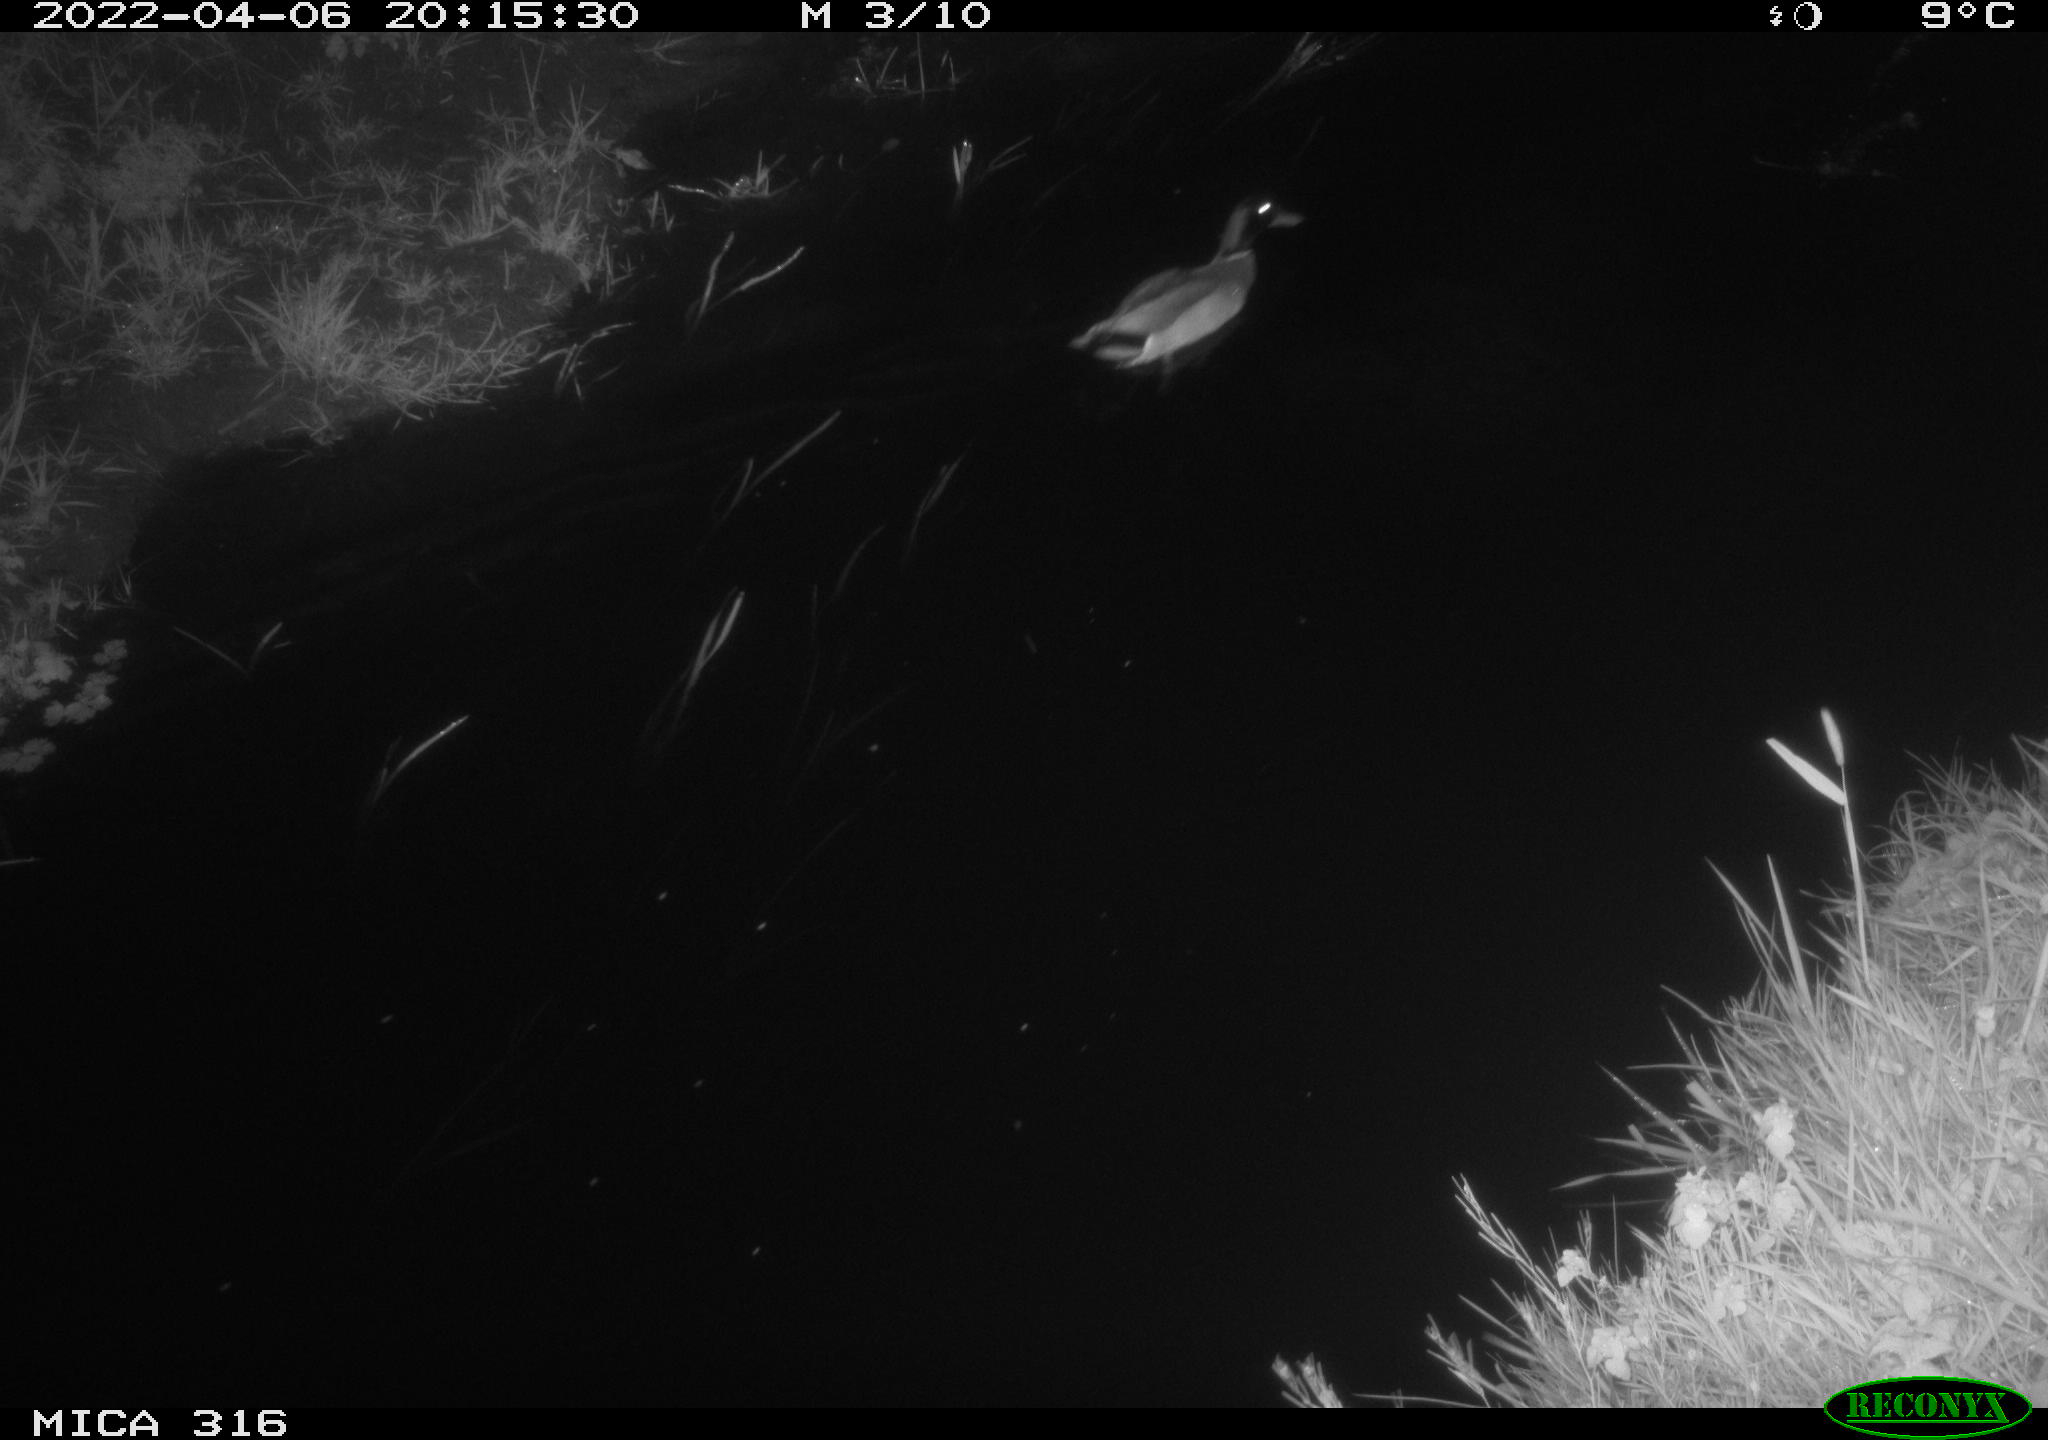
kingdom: Animalia
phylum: Chordata
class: Aves
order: Anseriformes
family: Anatidae
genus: Anas
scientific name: Anas platyrhynchos
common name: Mallard
